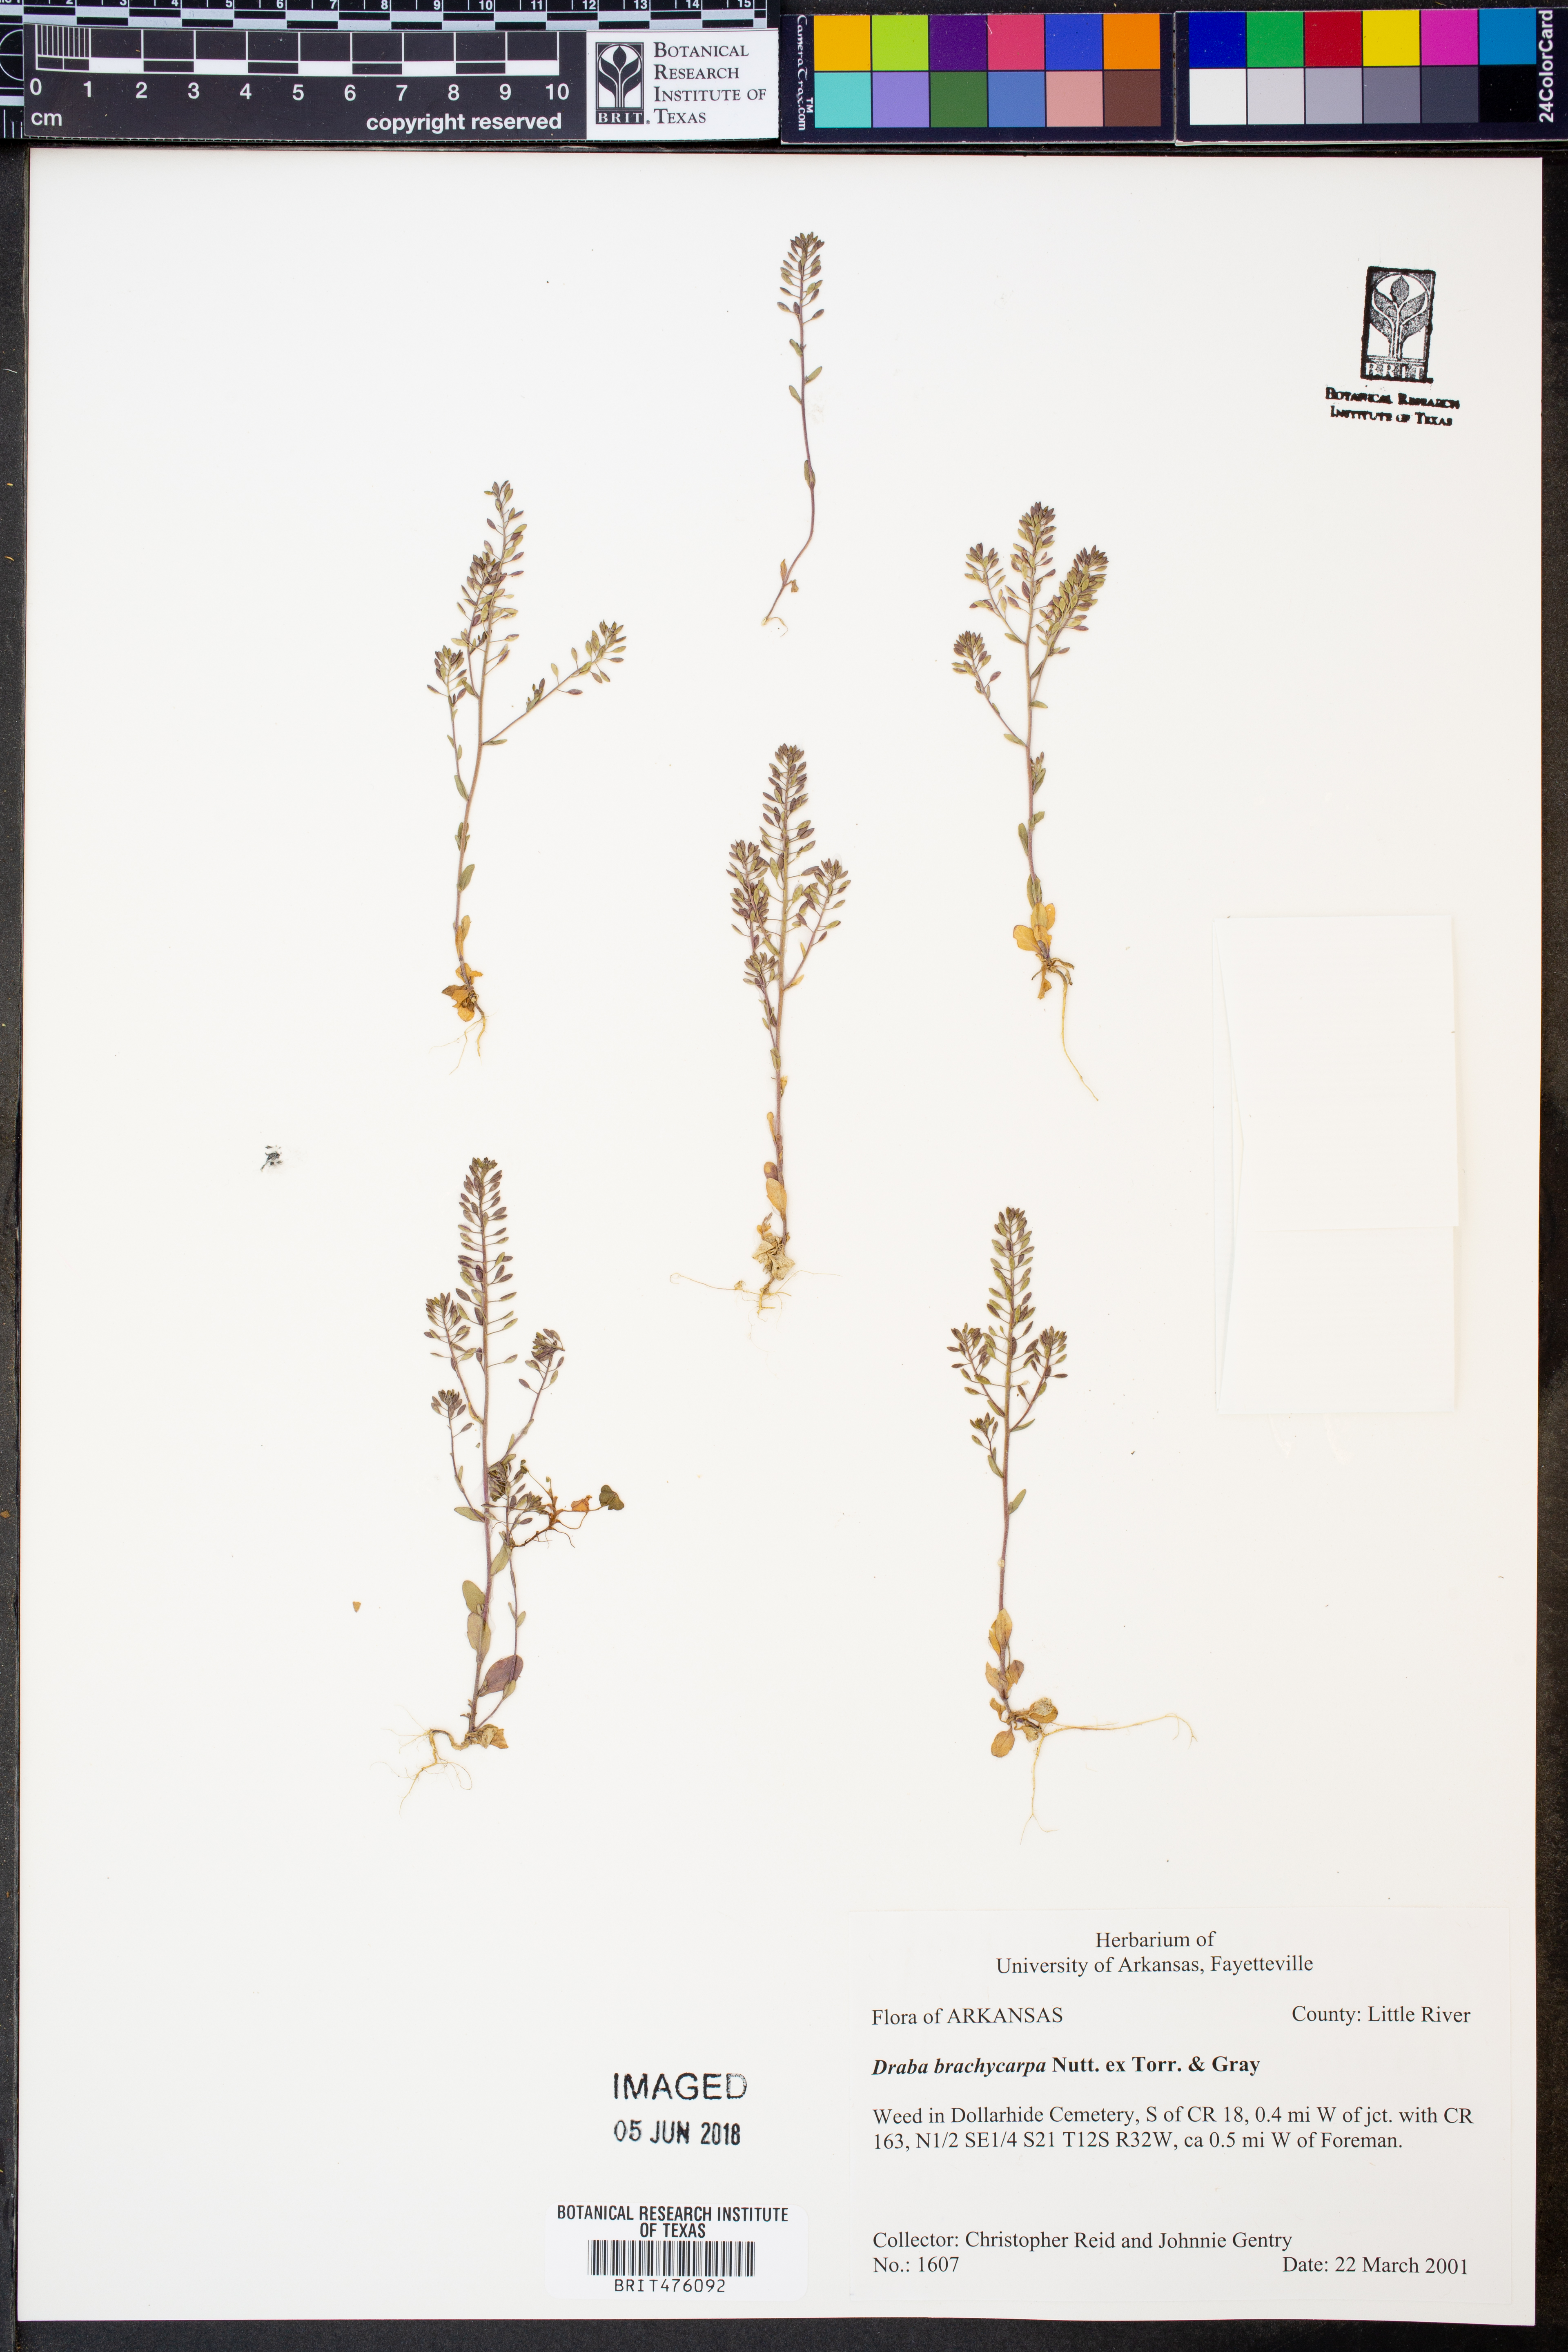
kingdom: Plantae
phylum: Tracheophyta
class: Magnoliopsida
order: Brassicales
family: Brassicaceae
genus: Abdra
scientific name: Abdra brachycarpa
